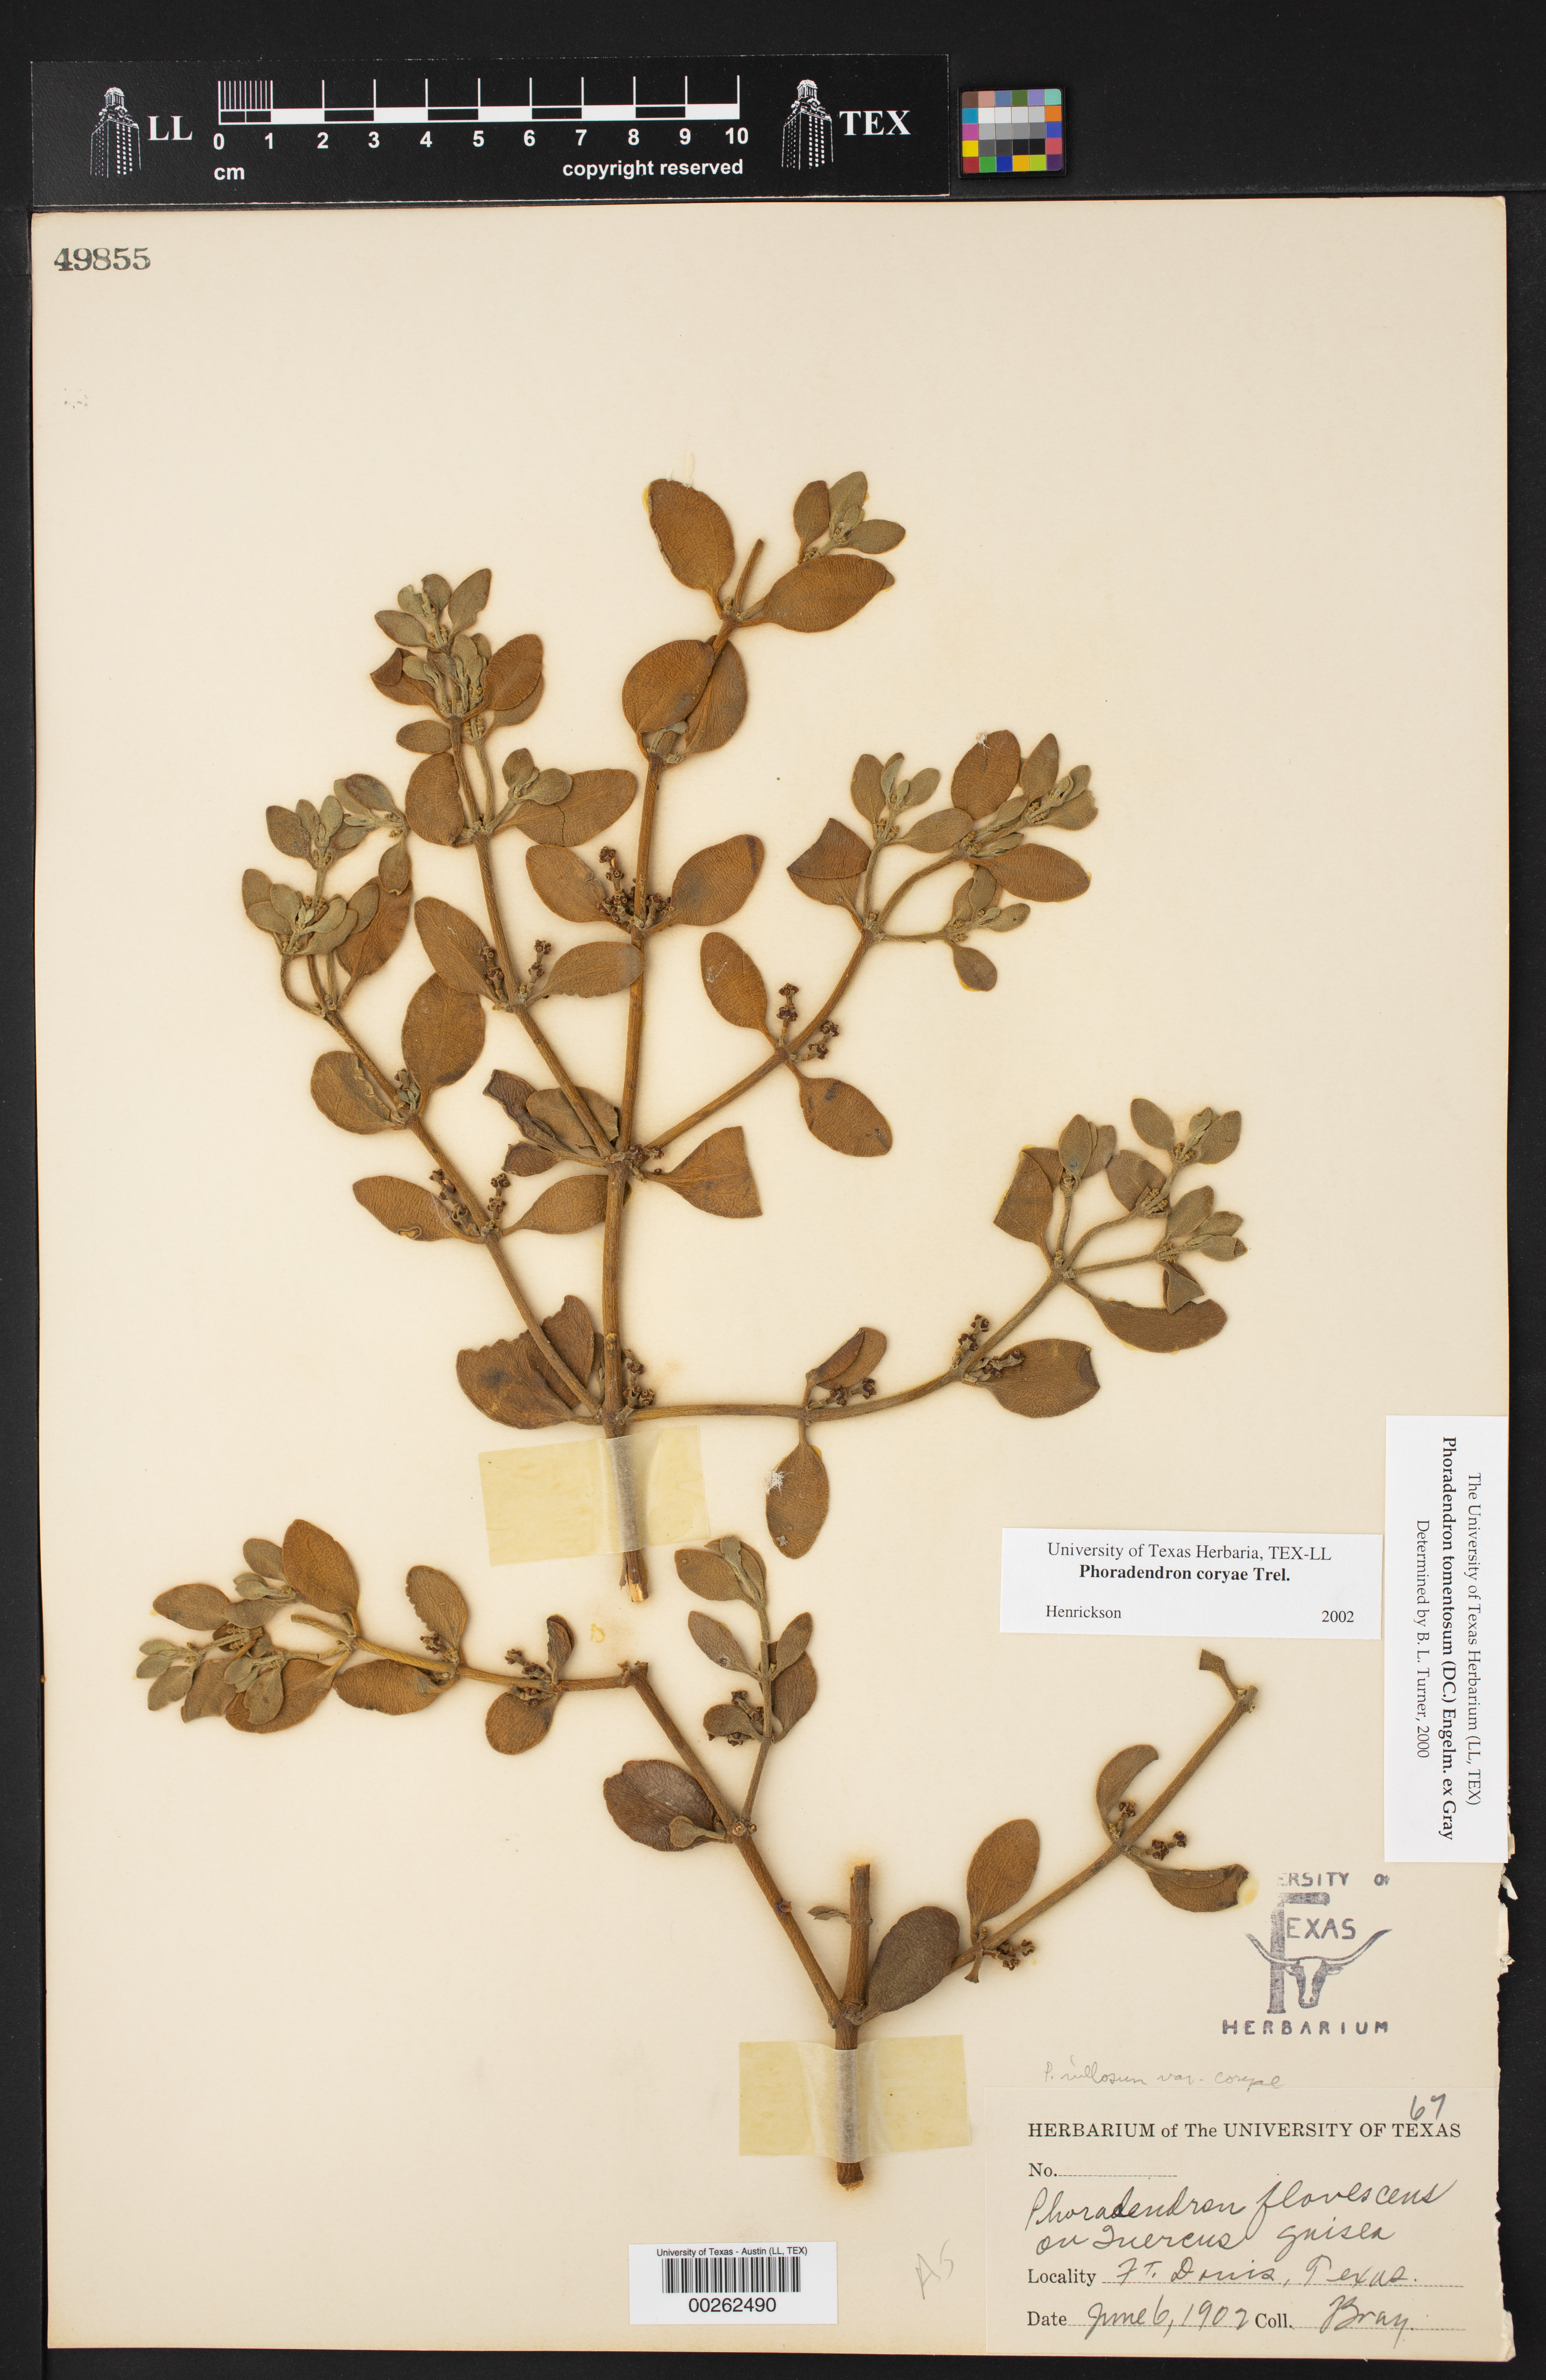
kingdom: Plantae
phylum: Tracheophyta
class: Magnoliopsida
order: Santalales
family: Viscaceae
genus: Phoradendron
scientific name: Phoradendron leucarpum
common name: Pacific mistletoe
